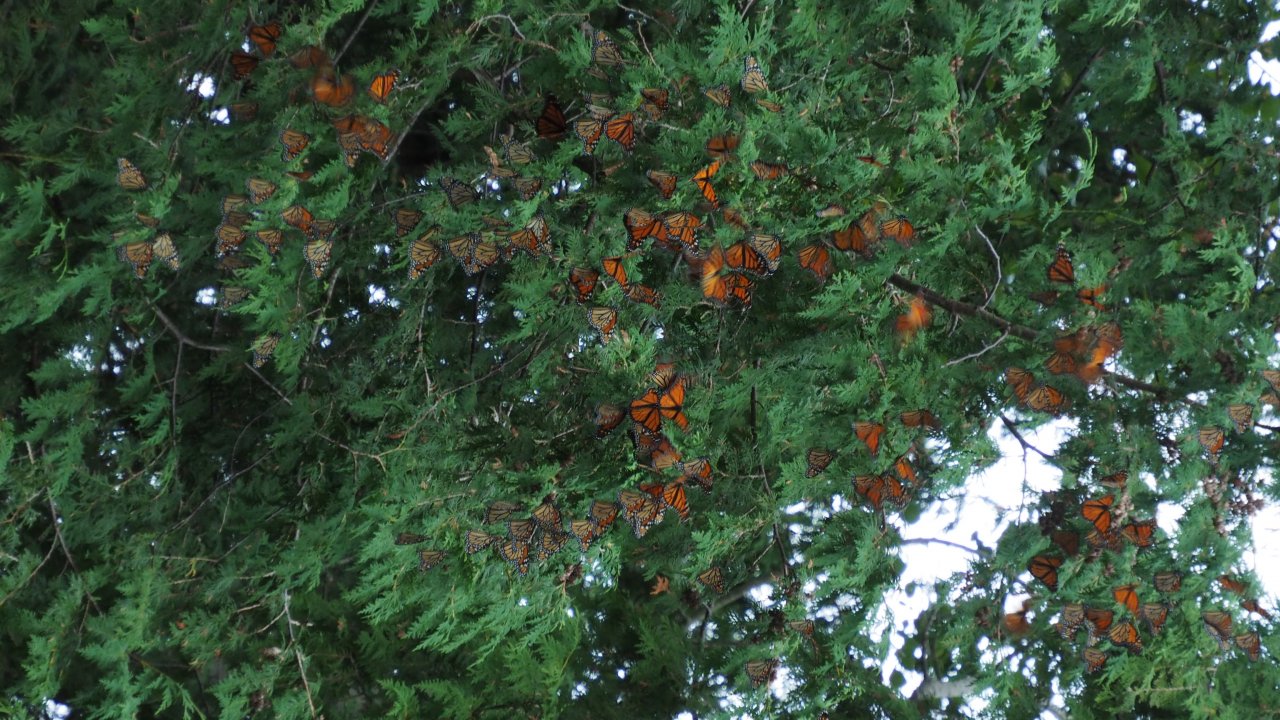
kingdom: Animalia
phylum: Arthropoda
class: Insecta
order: Lepidoptera
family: Nymphalidae
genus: Danaus
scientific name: Danaus plexippus
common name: Monarch
